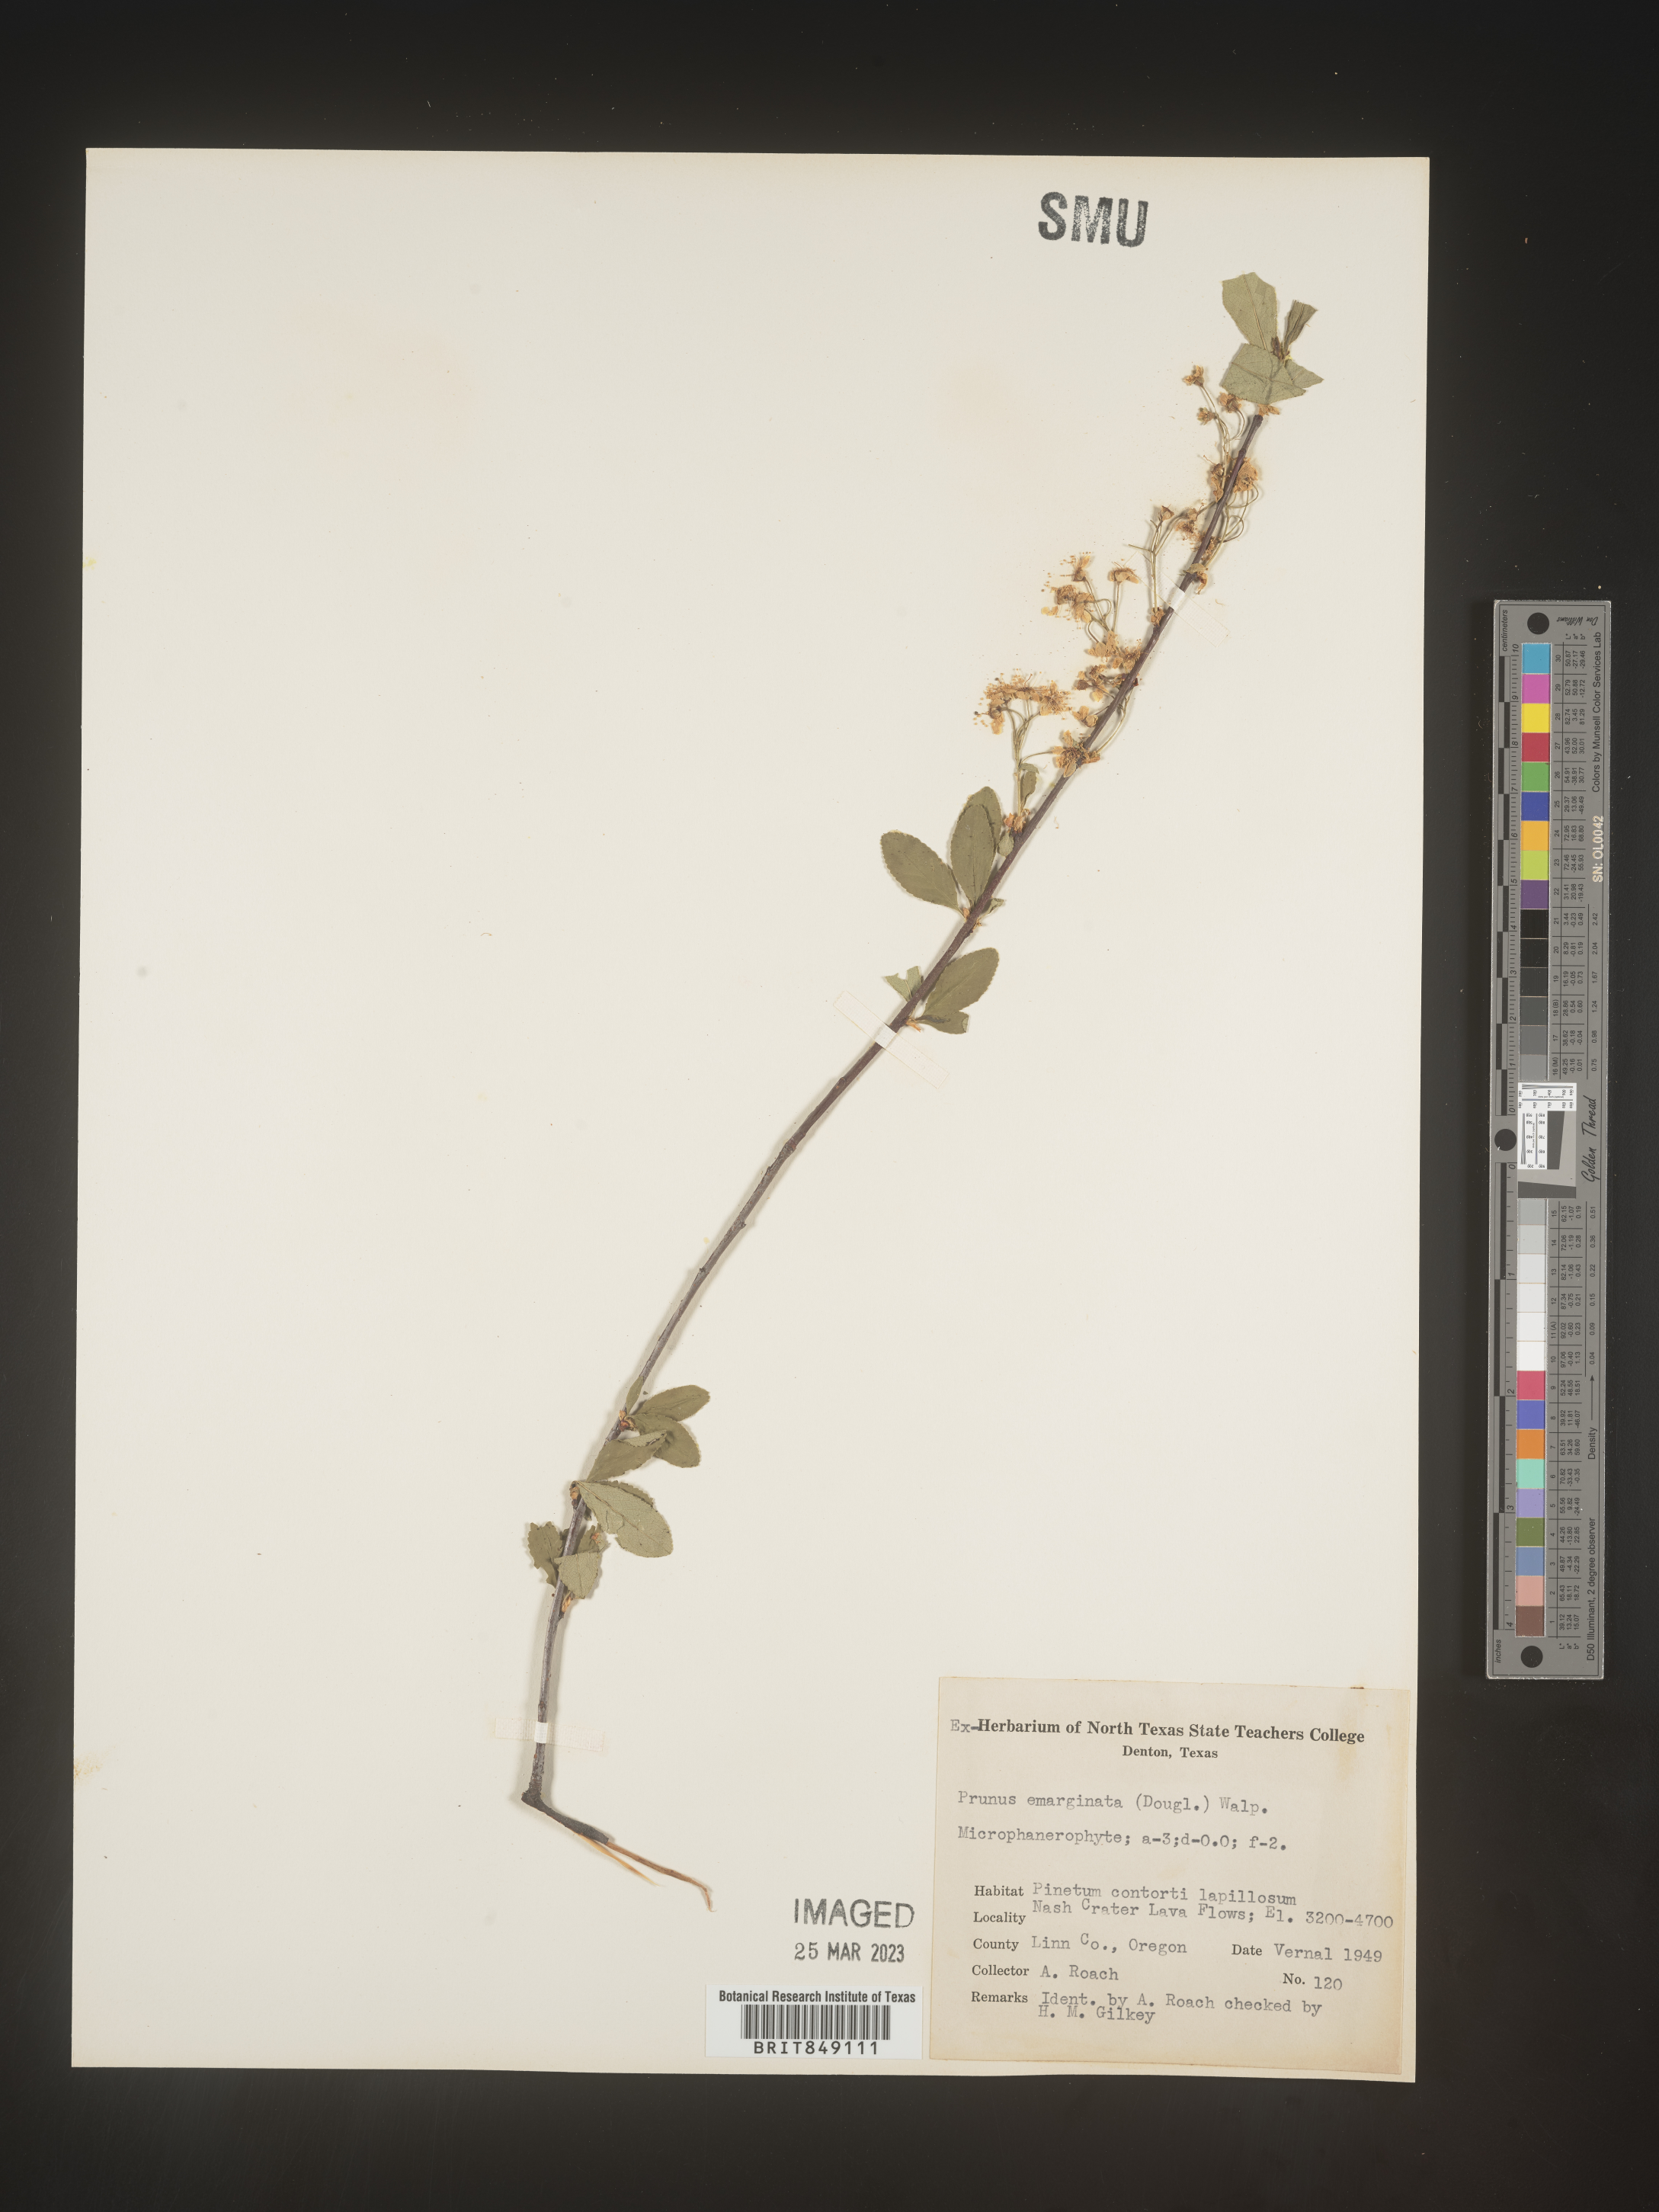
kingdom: Plantae
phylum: Tracheophyta
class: Magnoliopsida
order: Rosales
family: Rosaceae
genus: Prunus
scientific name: Prunus emarginata
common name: Bitter cherry
